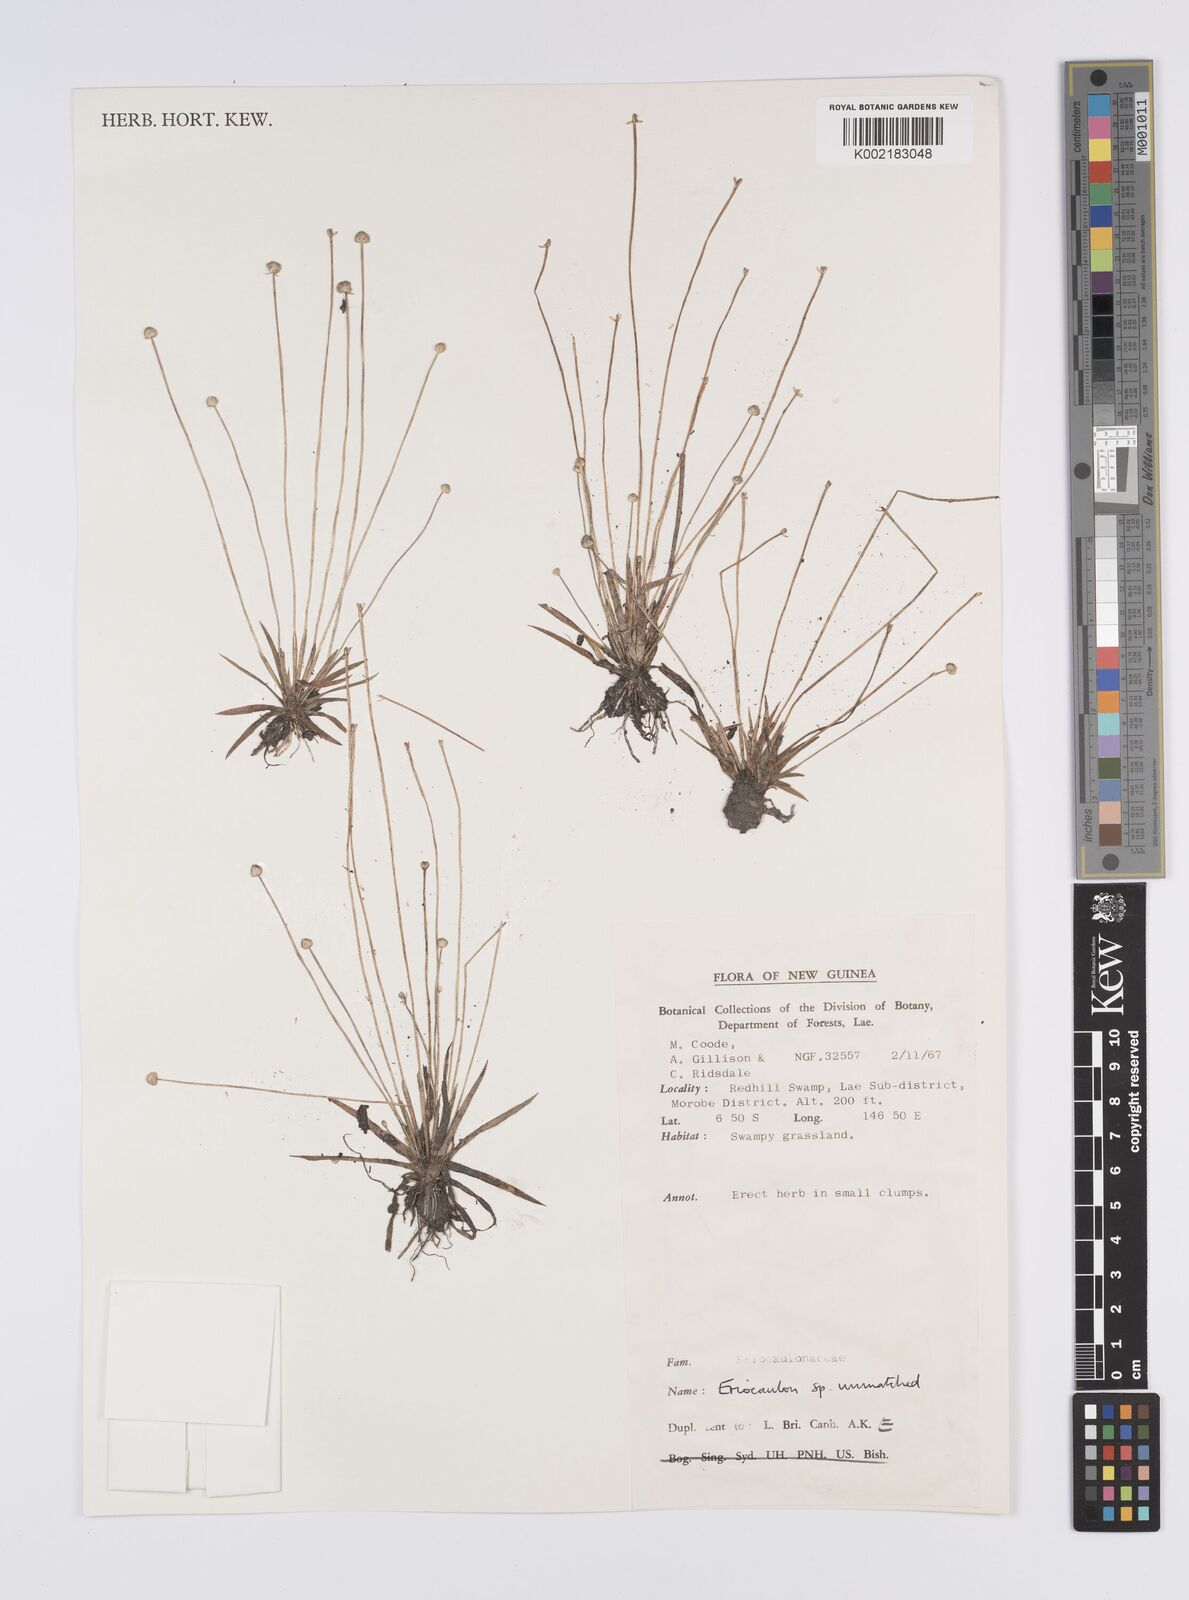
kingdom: Plantae
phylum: Tracheophyta
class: Liliopsida
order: Poales
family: Eriocaulaceae
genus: Eriocaulon
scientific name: Eriocaulon
